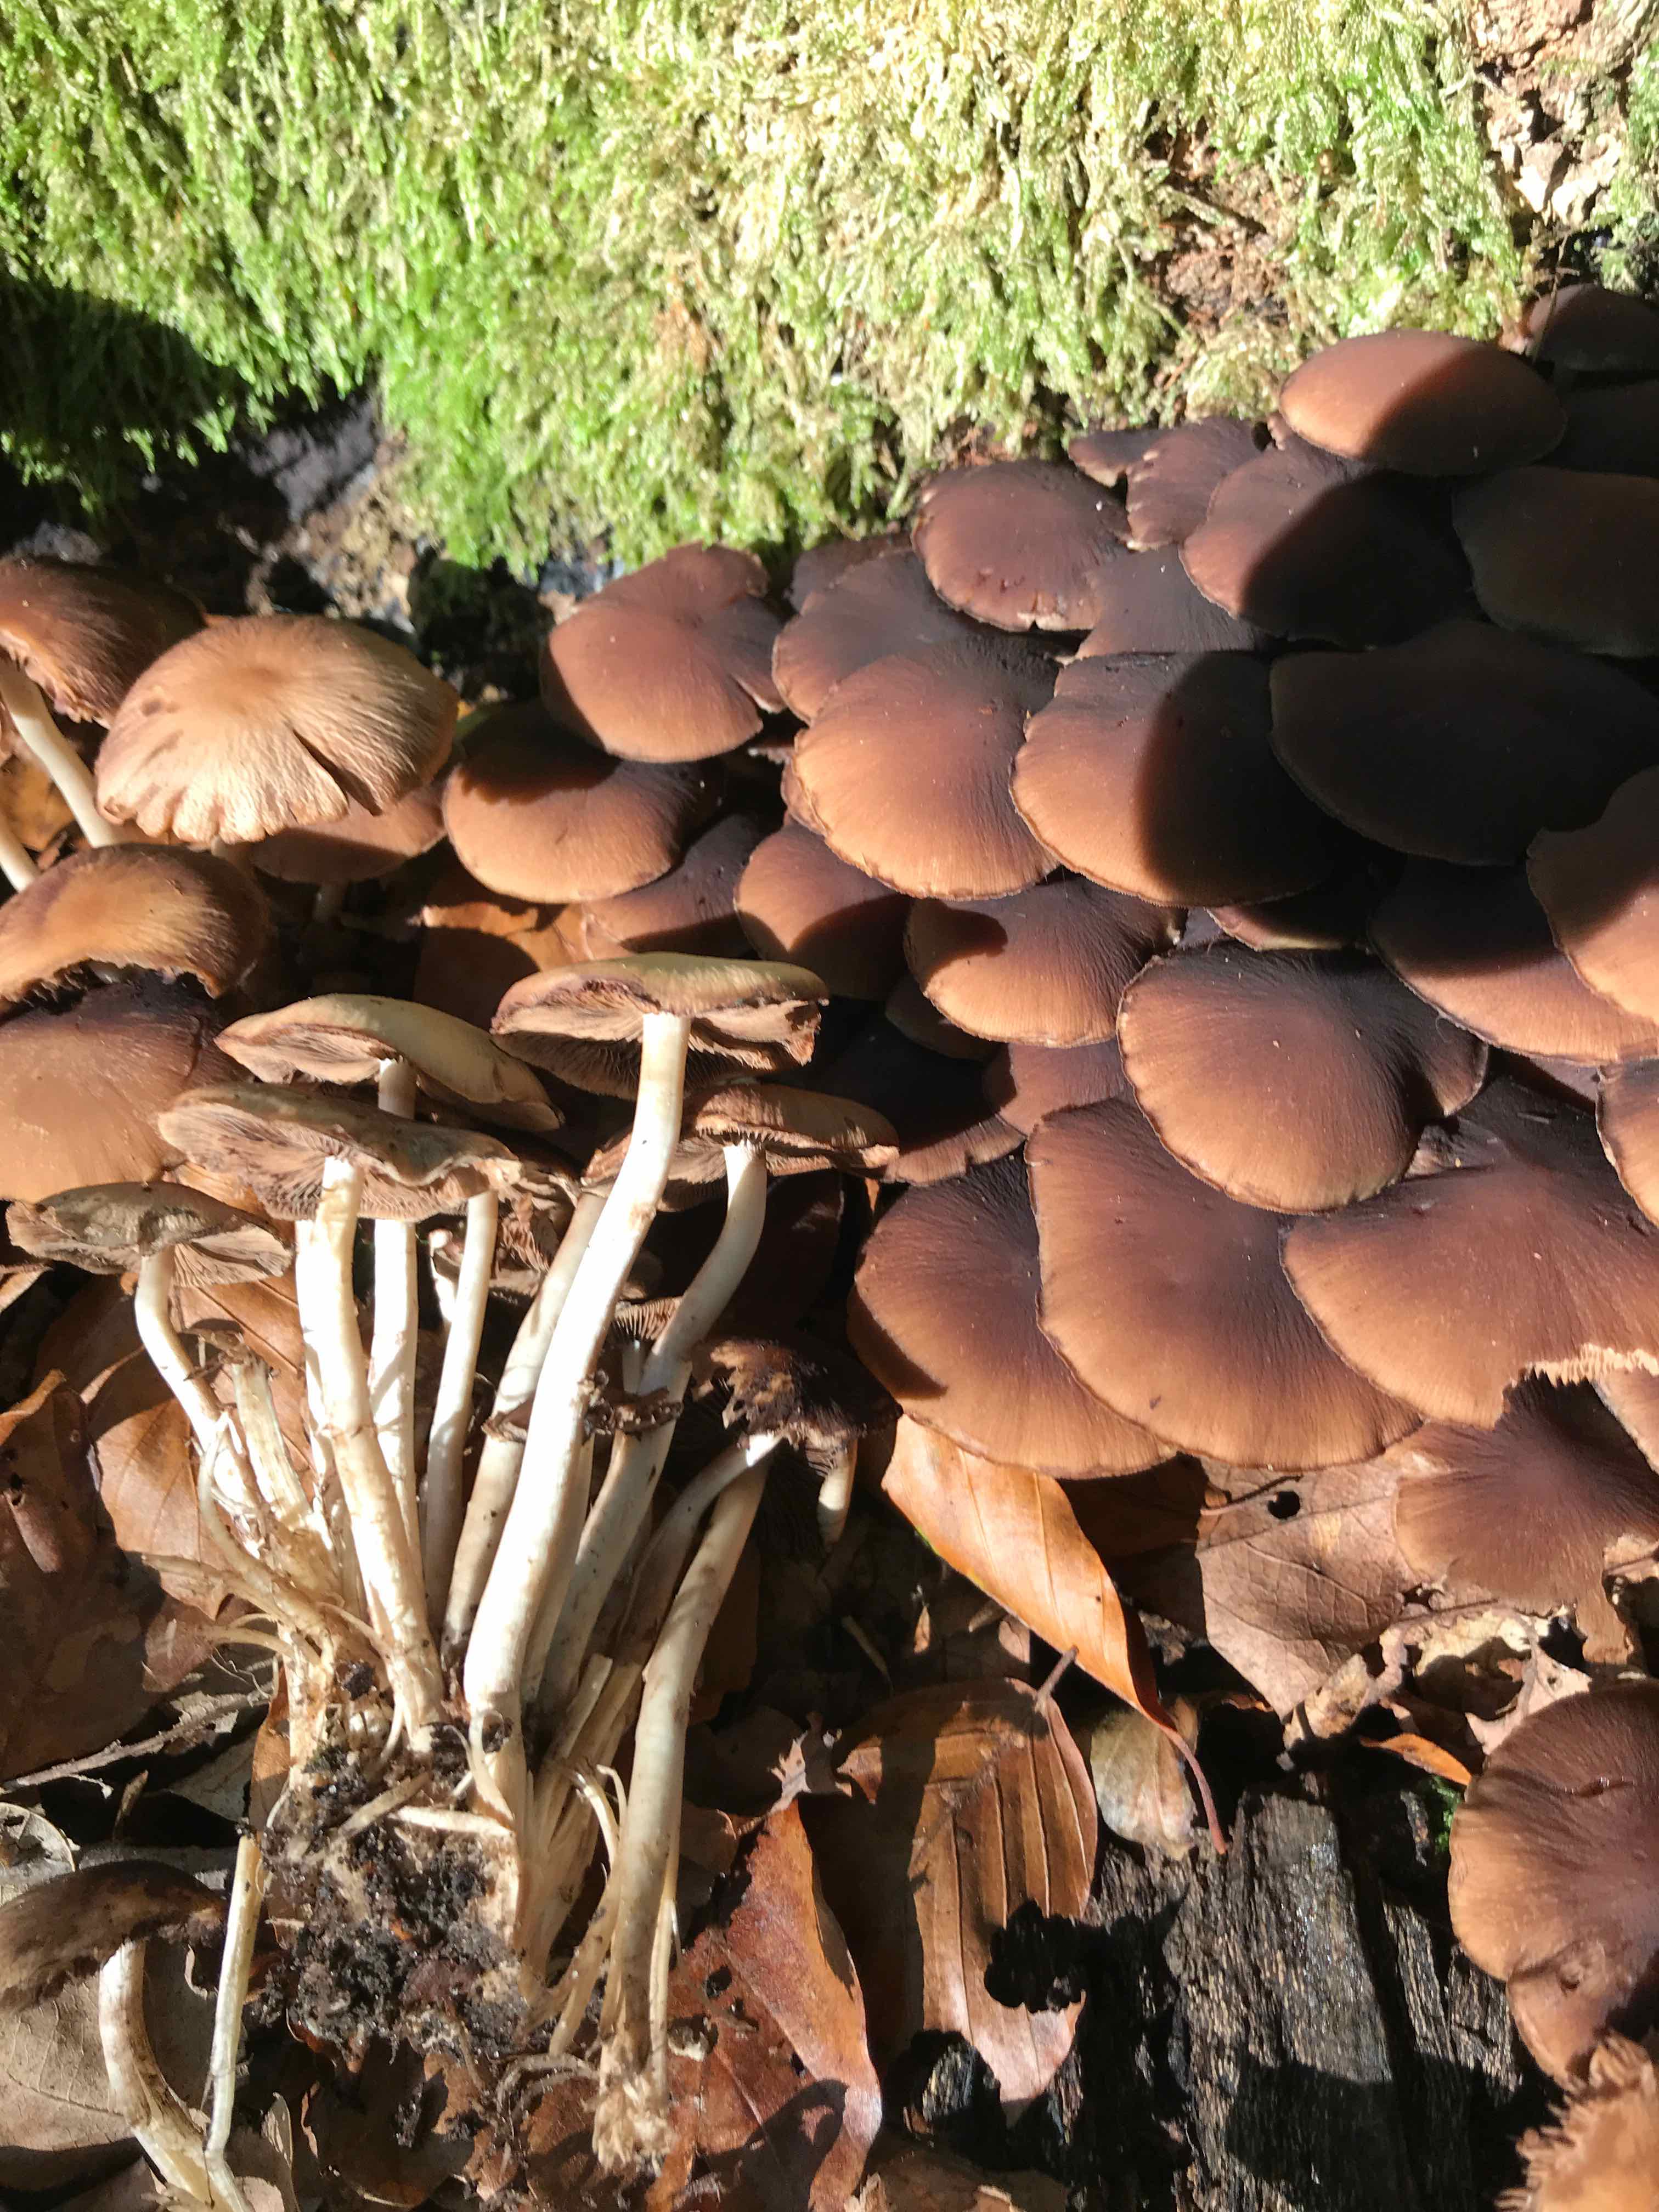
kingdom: Fungi
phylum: Basidiomycota
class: Agaricomycetes
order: Agaricales
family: Psathyrellaceae
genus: Psathyrella
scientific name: Psathyrella piluliformis
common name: lysstokket mørkhat
